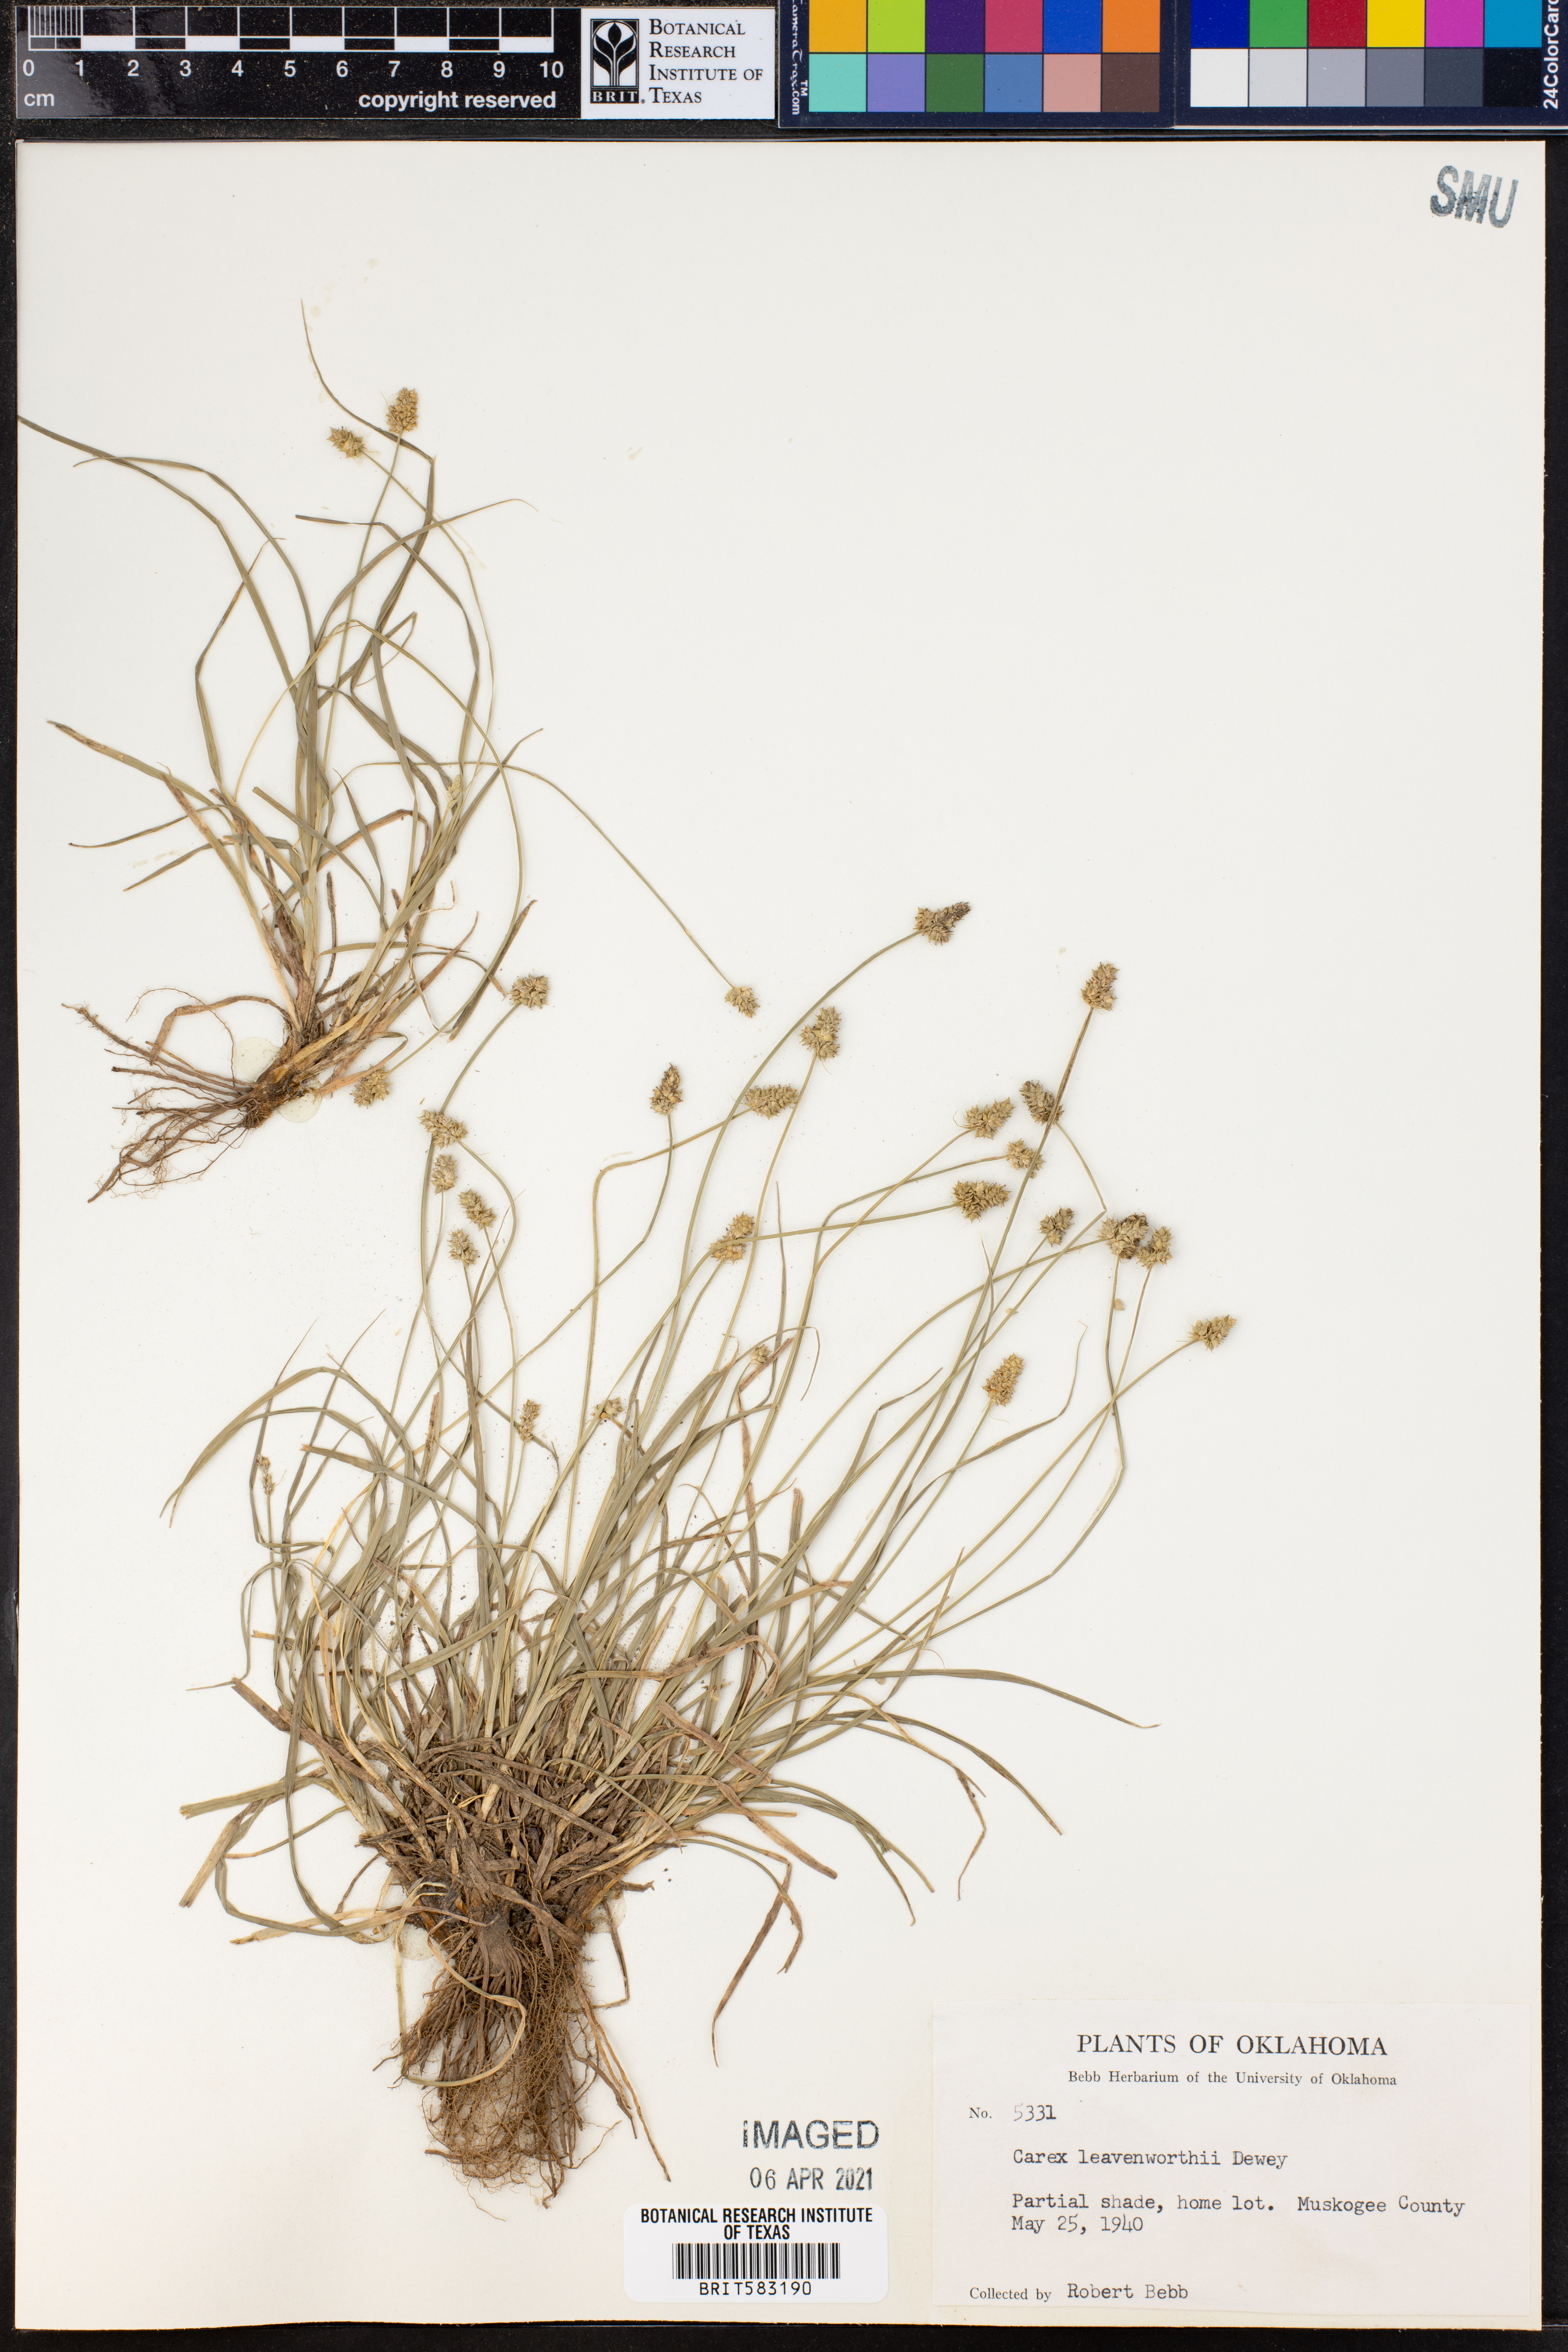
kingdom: Plantae
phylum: Tracheophyta
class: Liliopsida
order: Poales
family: Cyperaceae
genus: Carex
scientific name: Carex leavenworthii
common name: Leavenworth's bracted sedge
